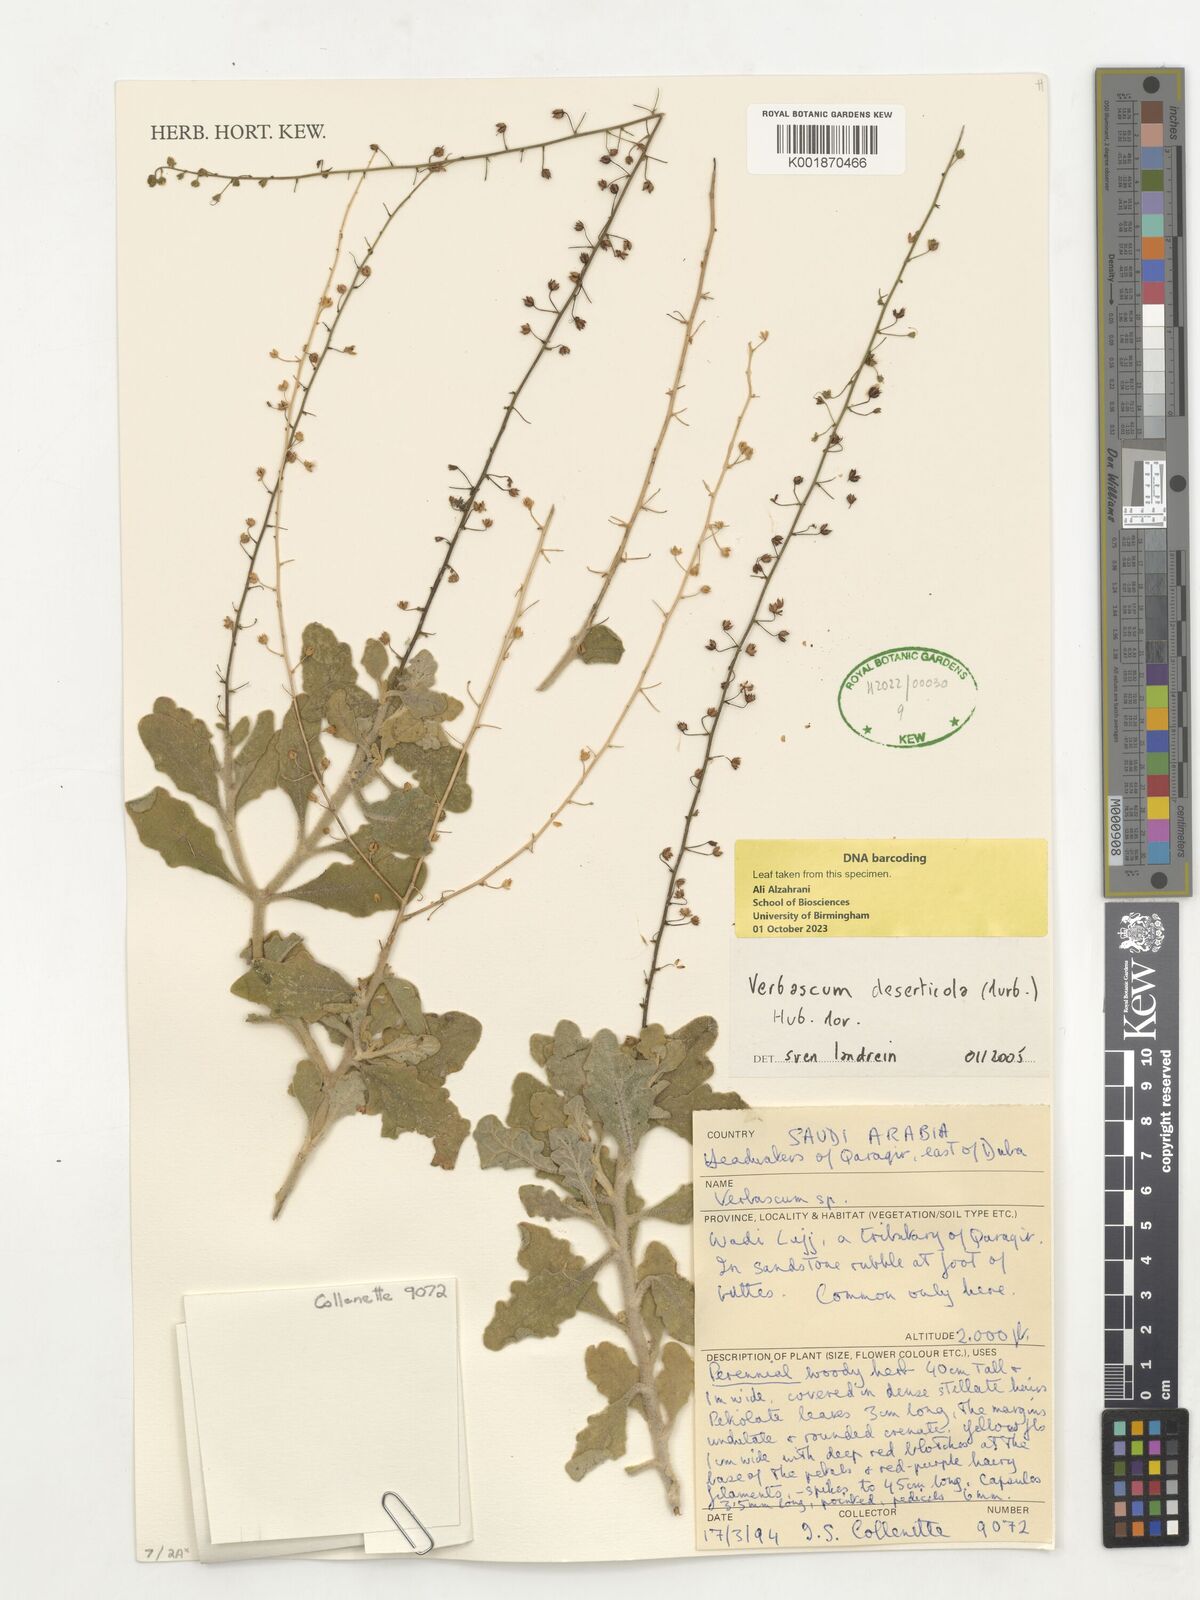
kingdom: Plantae
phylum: Tracheophyta
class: Magnoliopsida
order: Lamiales
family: Scrophulariaceae
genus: Verbascum
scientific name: Verbascum schimperianum
